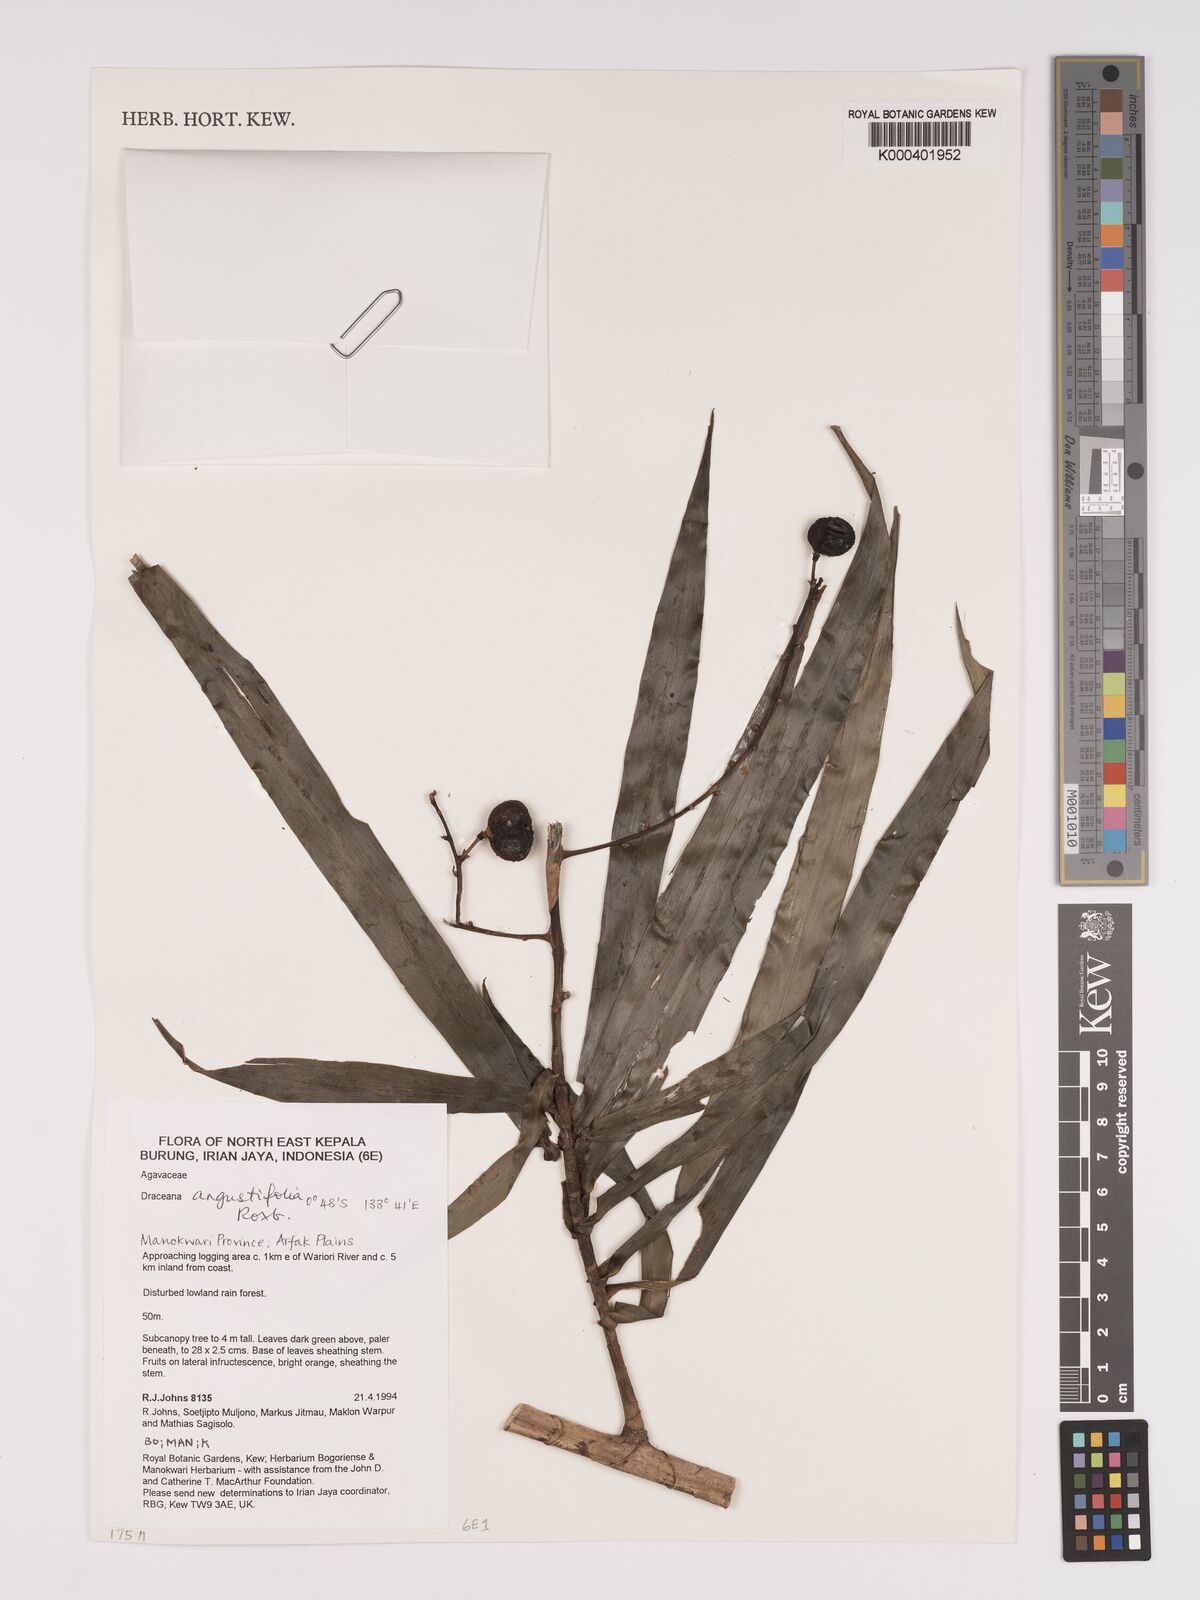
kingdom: Plantae
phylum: Tracheophyta
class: Liliopsida
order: Asparagales
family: Asparagaceae
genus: Dracaena
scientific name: Dracaena angustifolia
